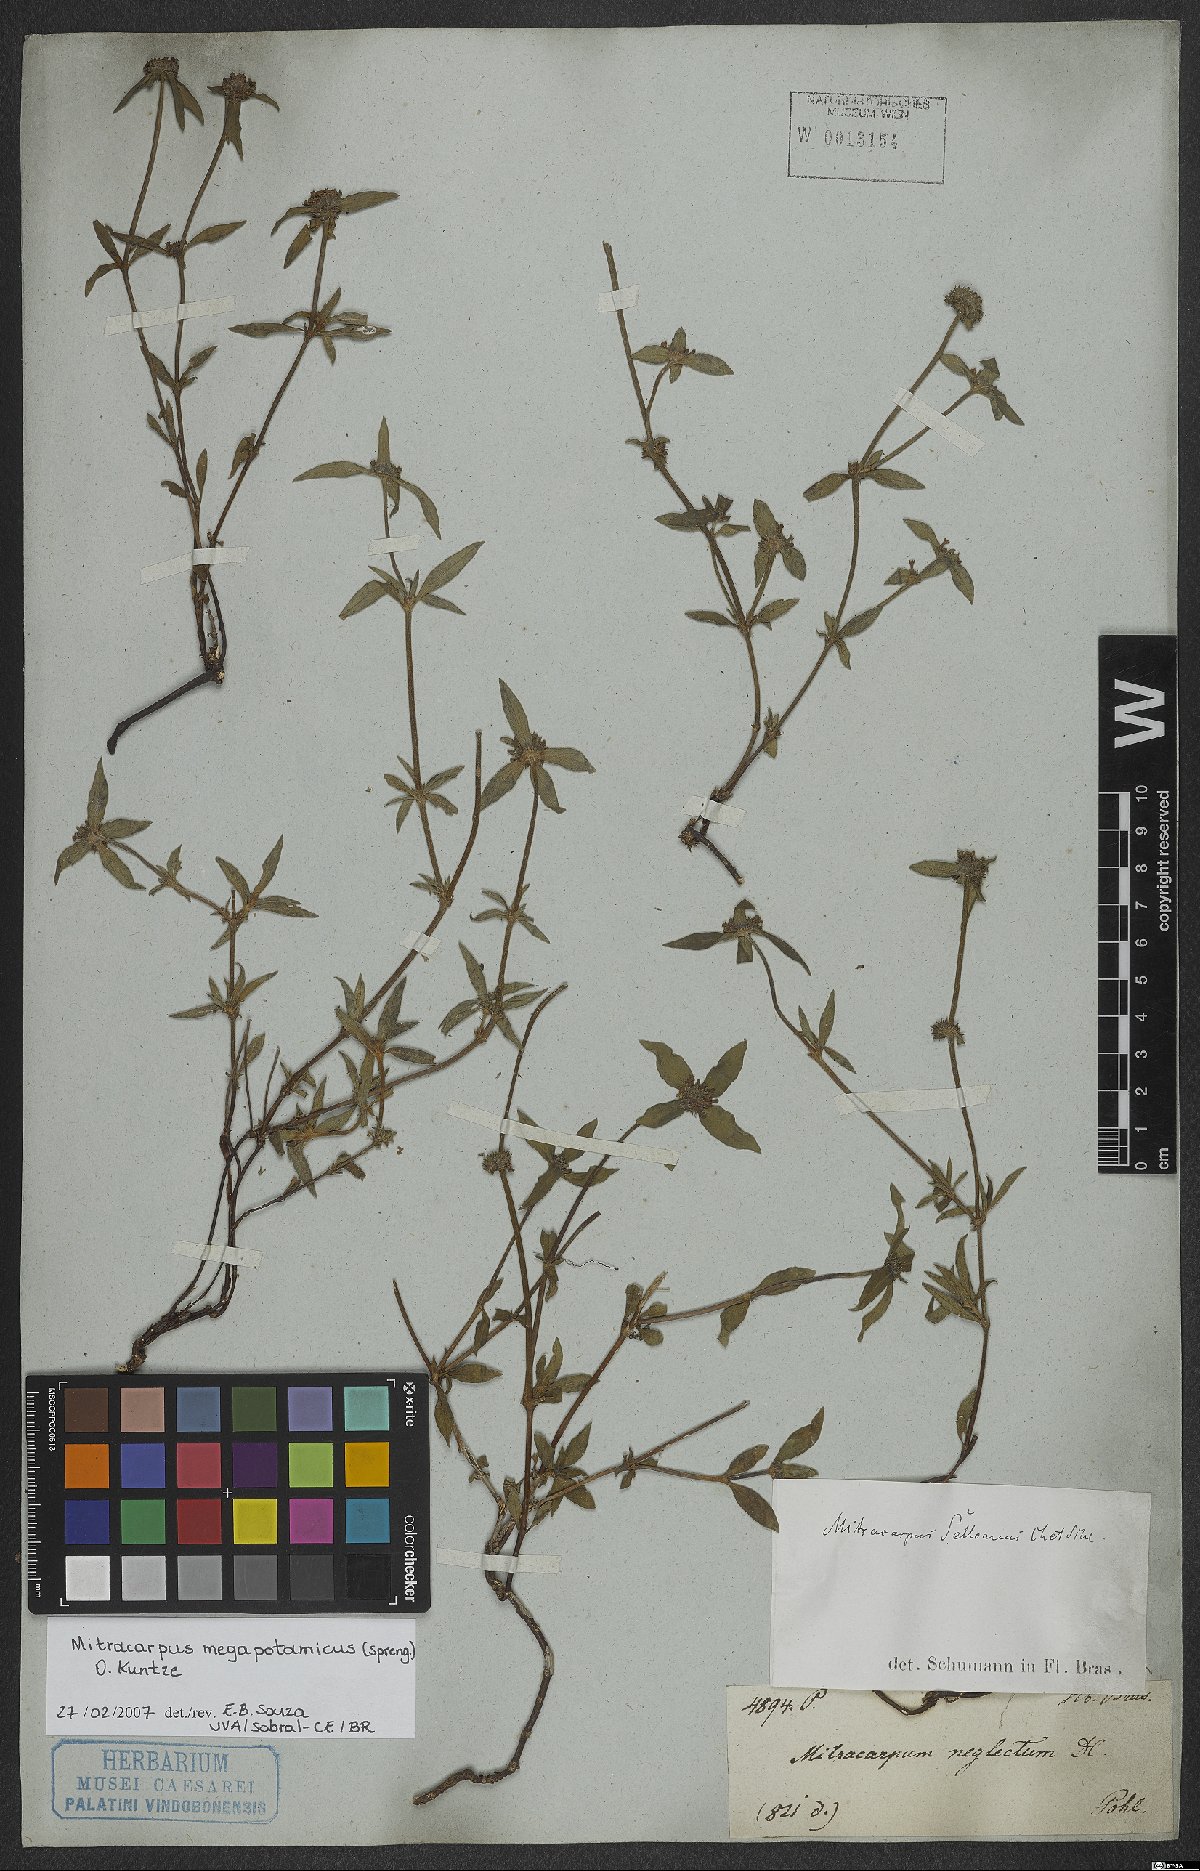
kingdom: Plantae
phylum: Tracheophyta
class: Magnoliopsida
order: Gentianales
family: Rubiaceae
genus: Mitracarpus
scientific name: Mitracarpus megapotamicus
